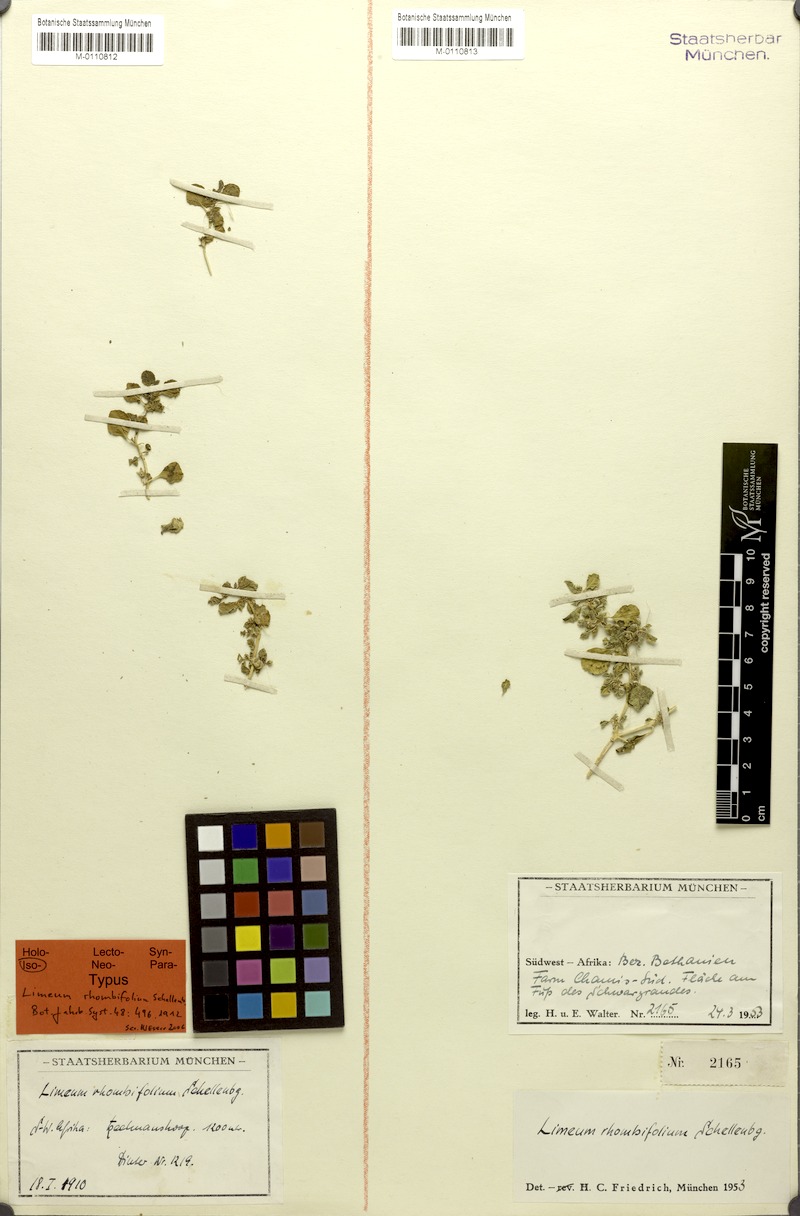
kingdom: Plantae
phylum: Tracheophyta
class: Magnoliopsida
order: Caryophyllales
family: Limeaceae
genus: Limeum
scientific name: Limeum rhombifolium
